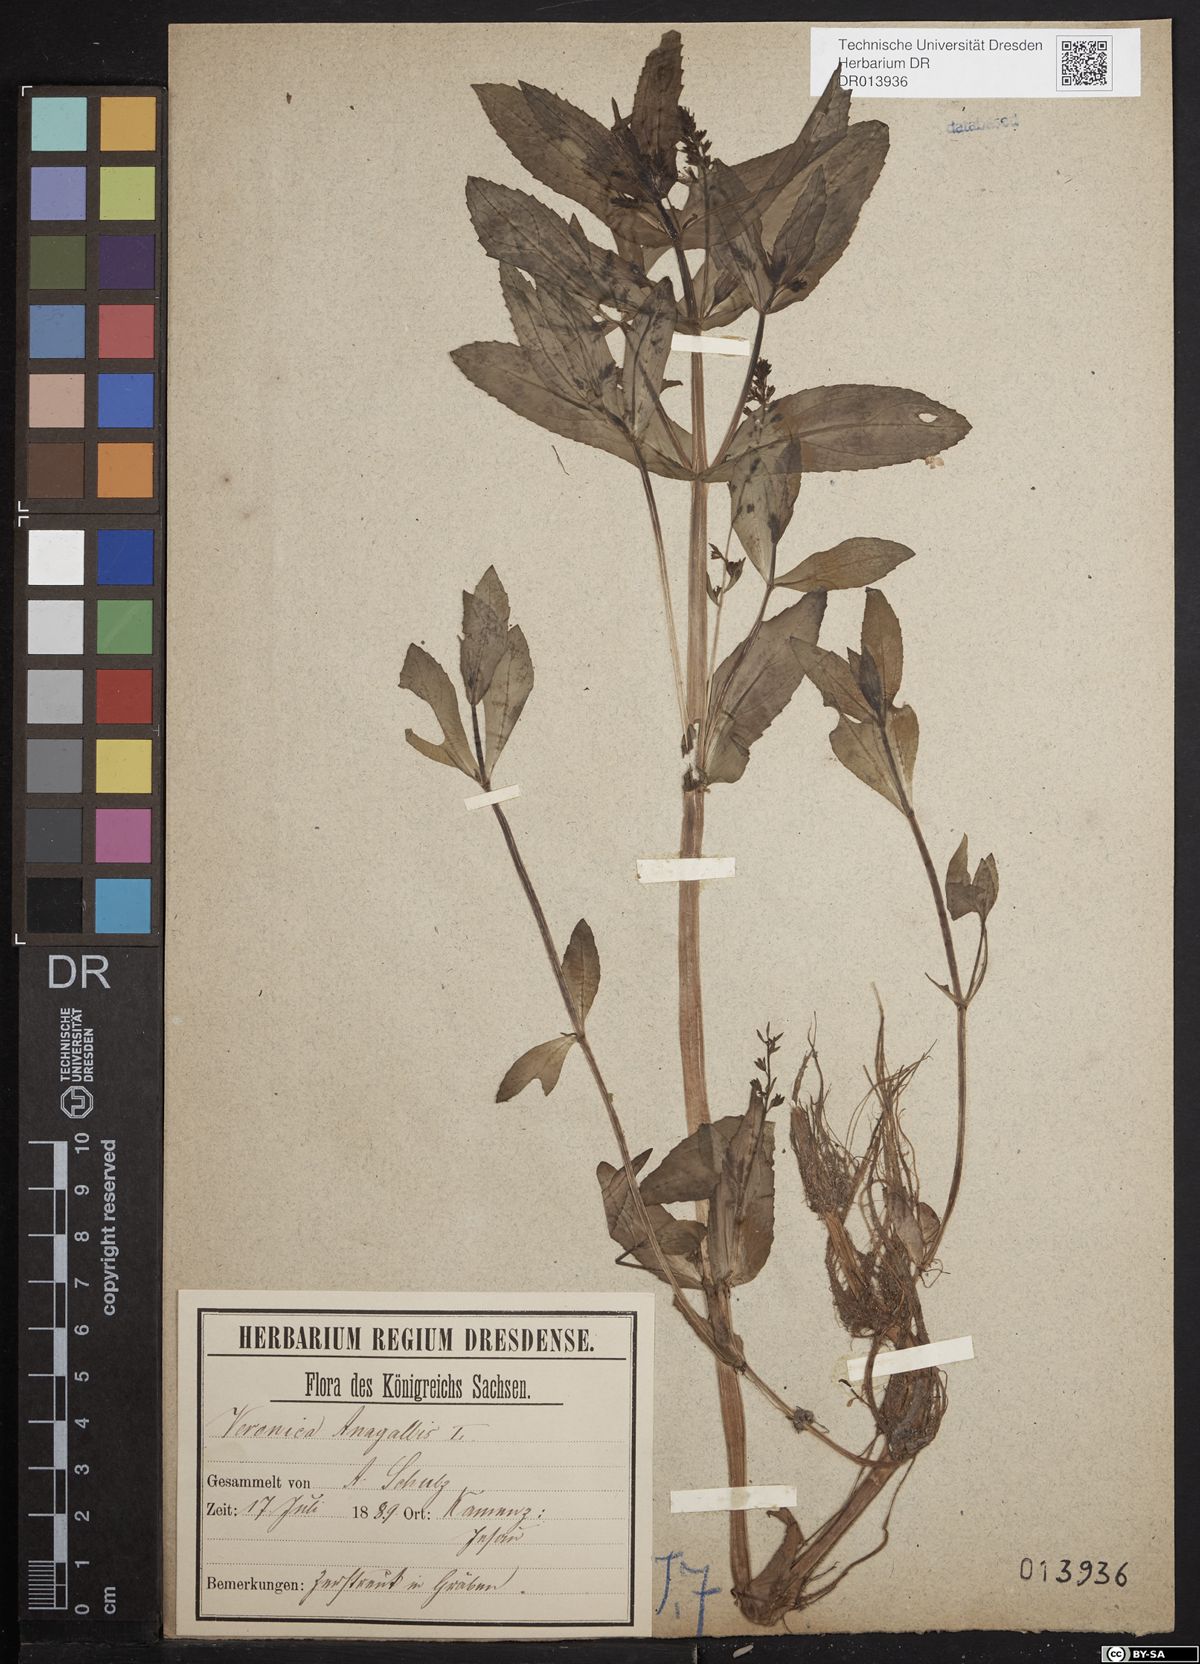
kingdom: Plantae
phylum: Tracheophyta
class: Magnoliopsida
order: Lamiales
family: Plantaginaceae
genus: Veronica
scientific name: Veronica anagallis-aquatica
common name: Water speedwell
